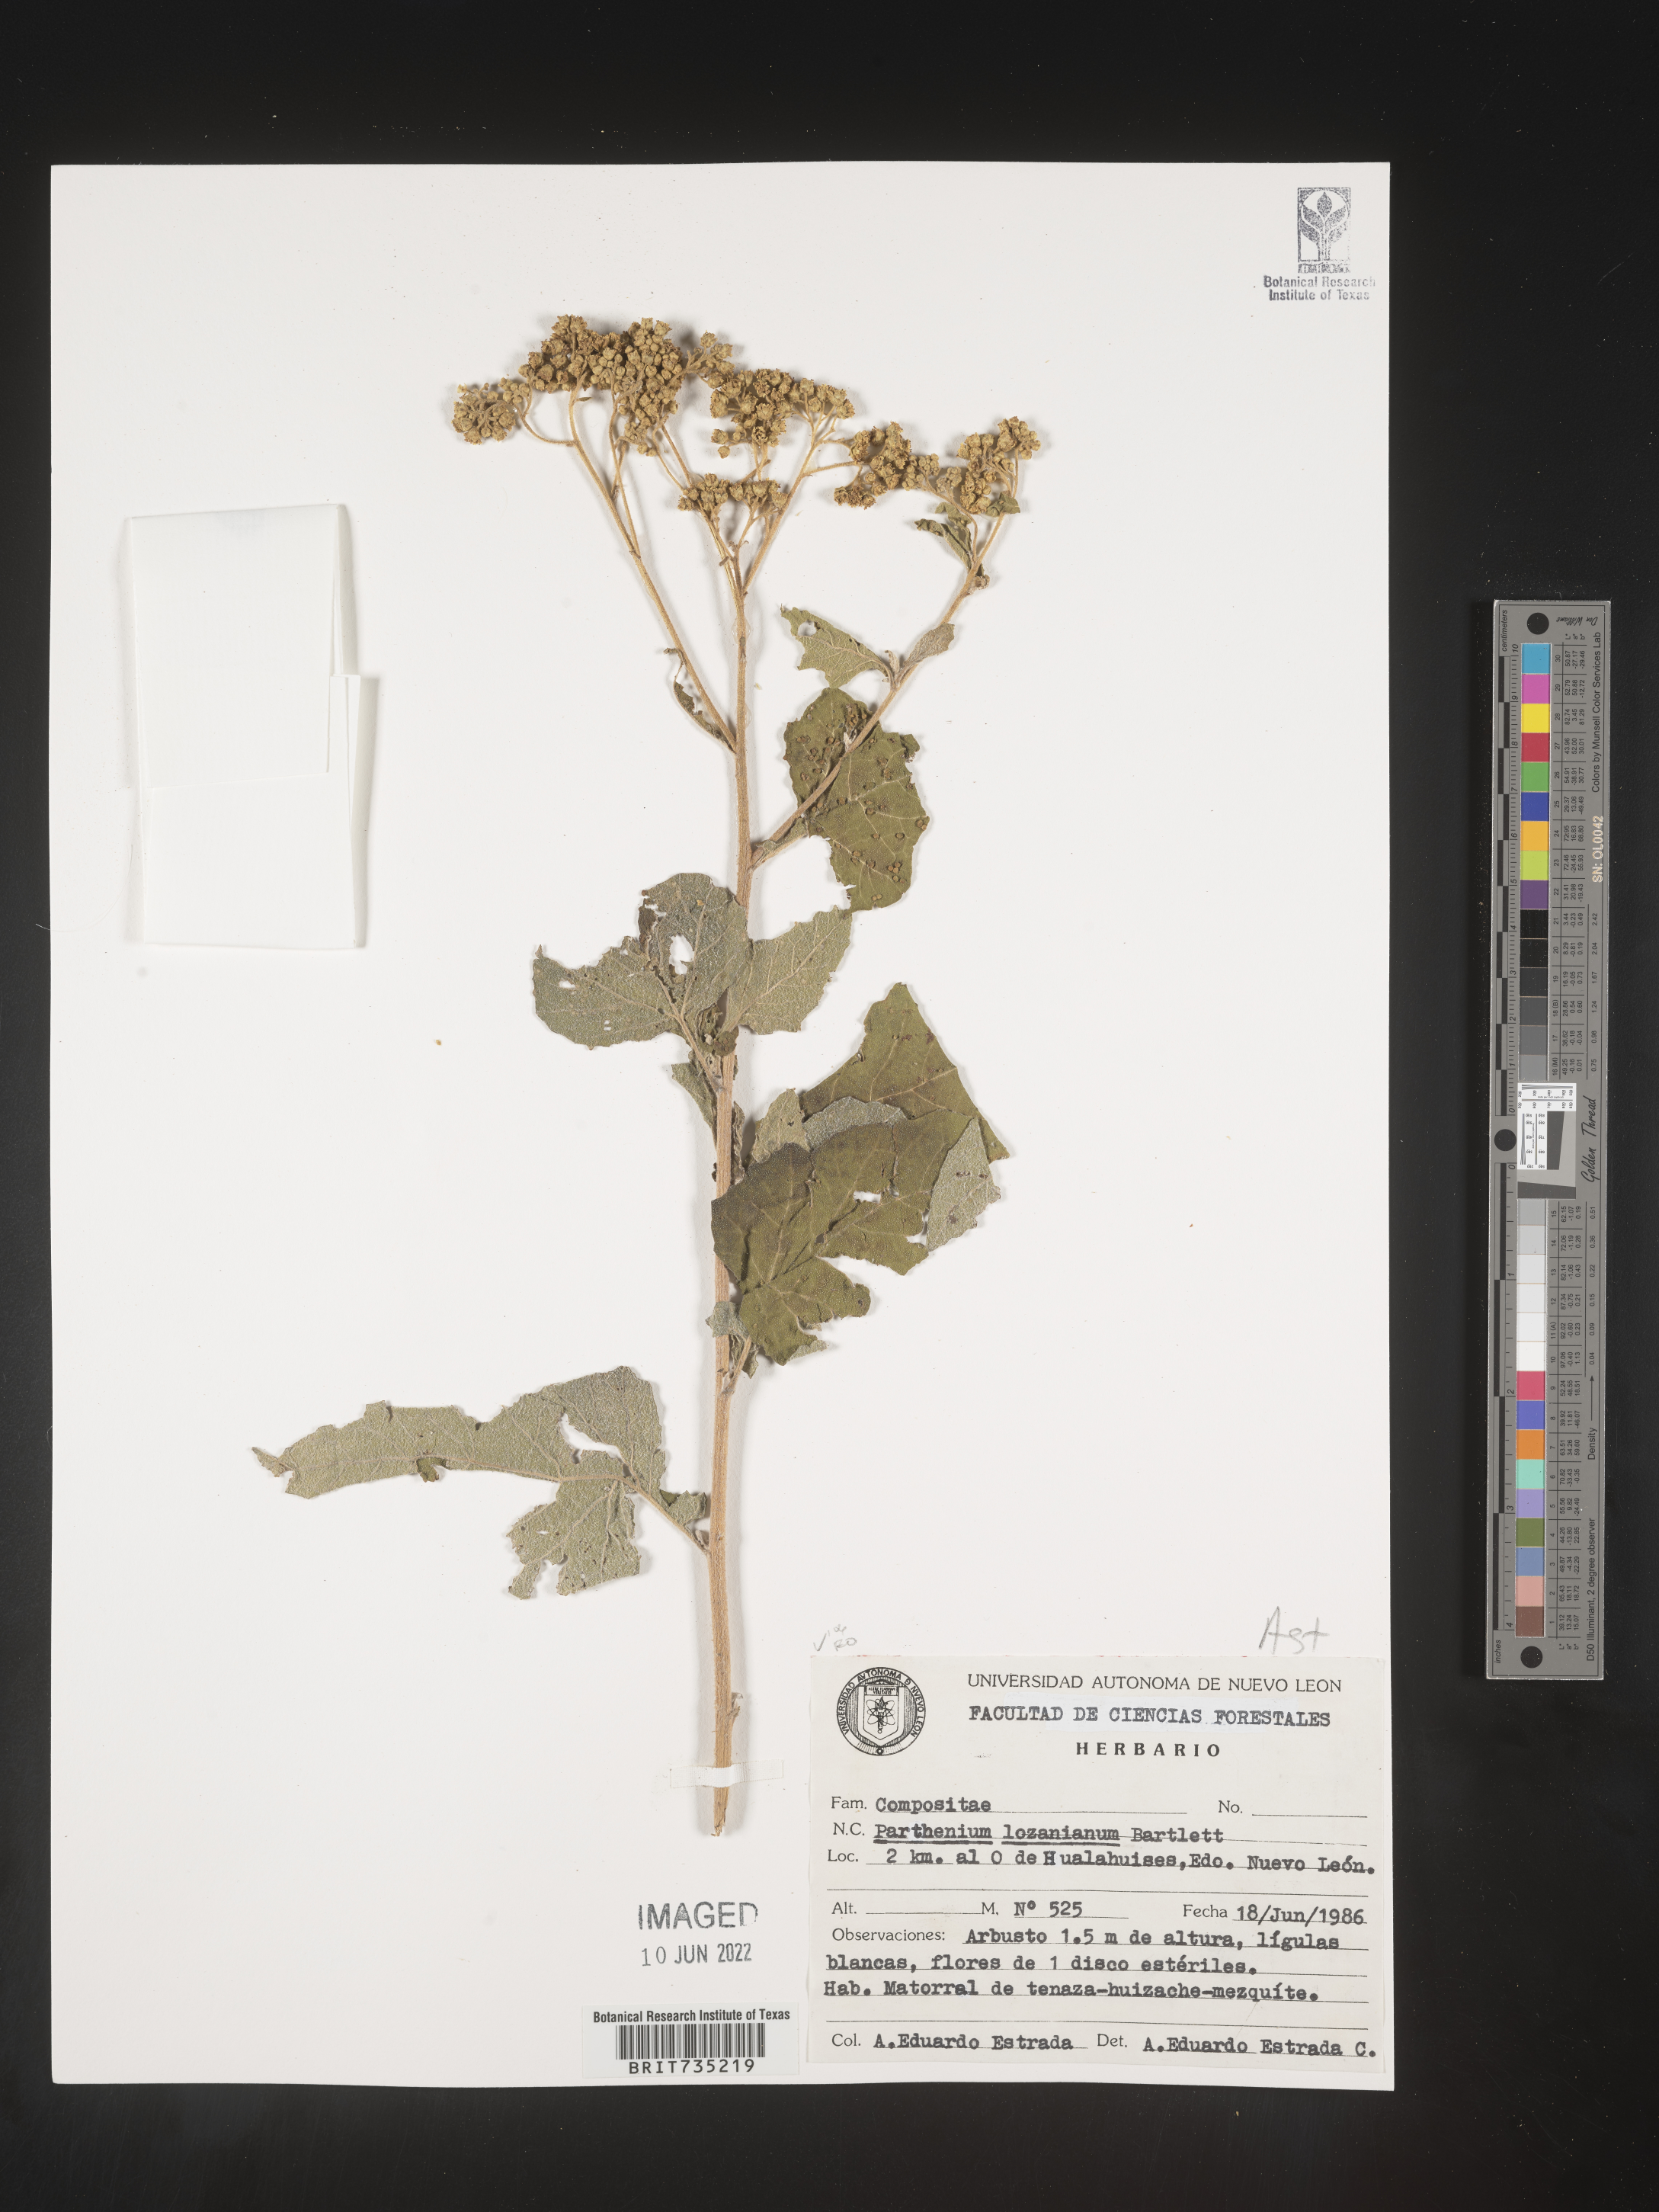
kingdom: Plantae
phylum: Tracheophyta
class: Magnoliopsida
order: Asterales
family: Asteraceae
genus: Parthenium
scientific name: Parthenium
